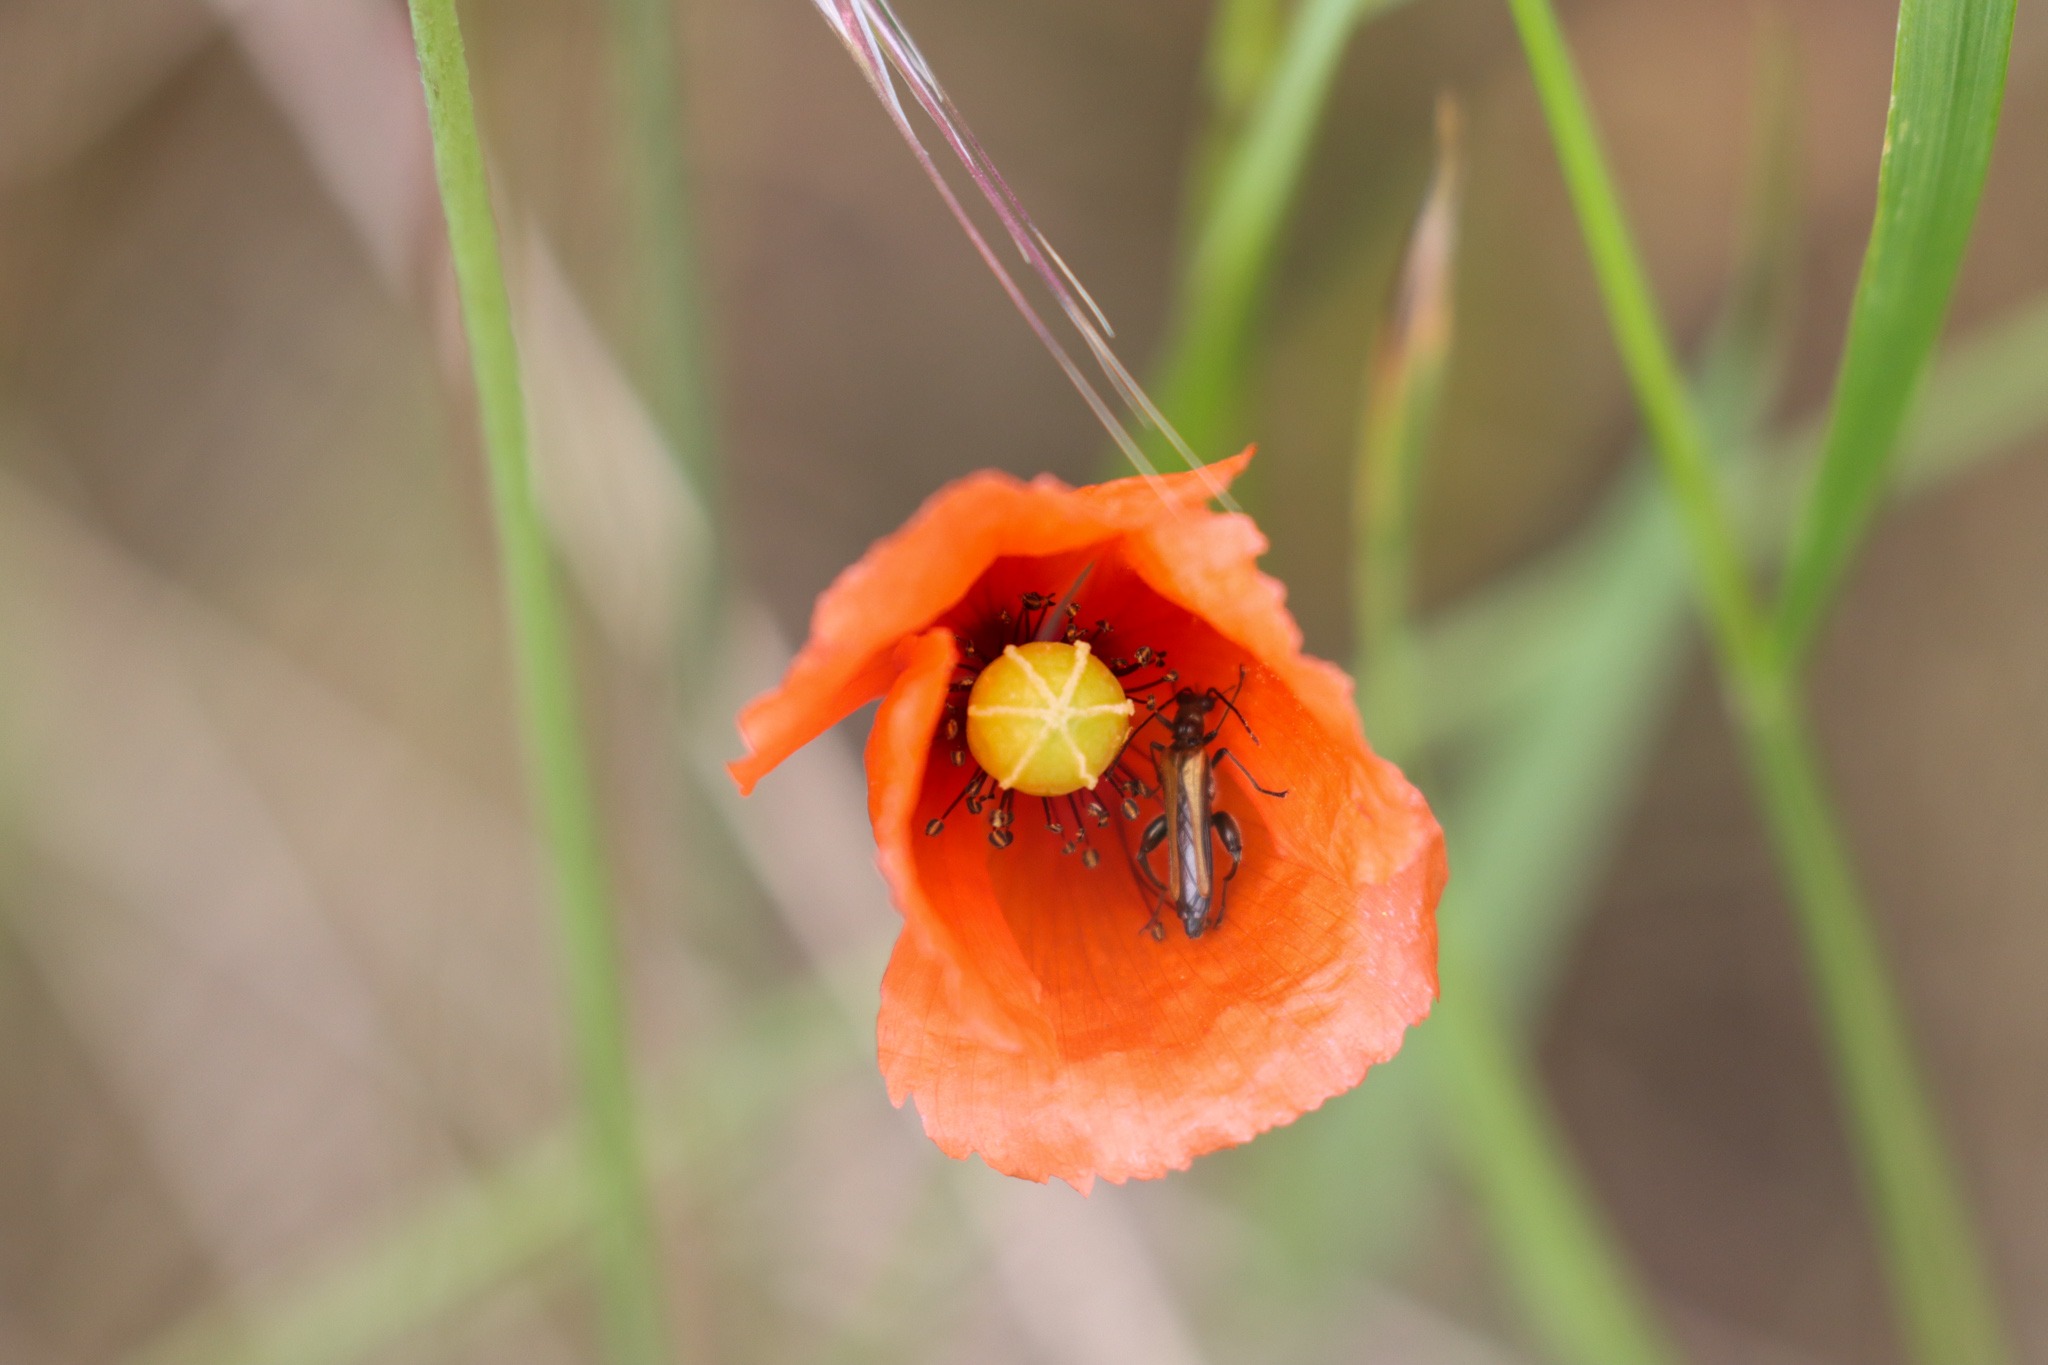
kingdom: Animalia
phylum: Arthropoda
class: Insecta
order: Coleoptera
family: Oedemeridae
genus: Oedemera
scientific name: Oedemera femorata
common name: Gulvinget solbille
